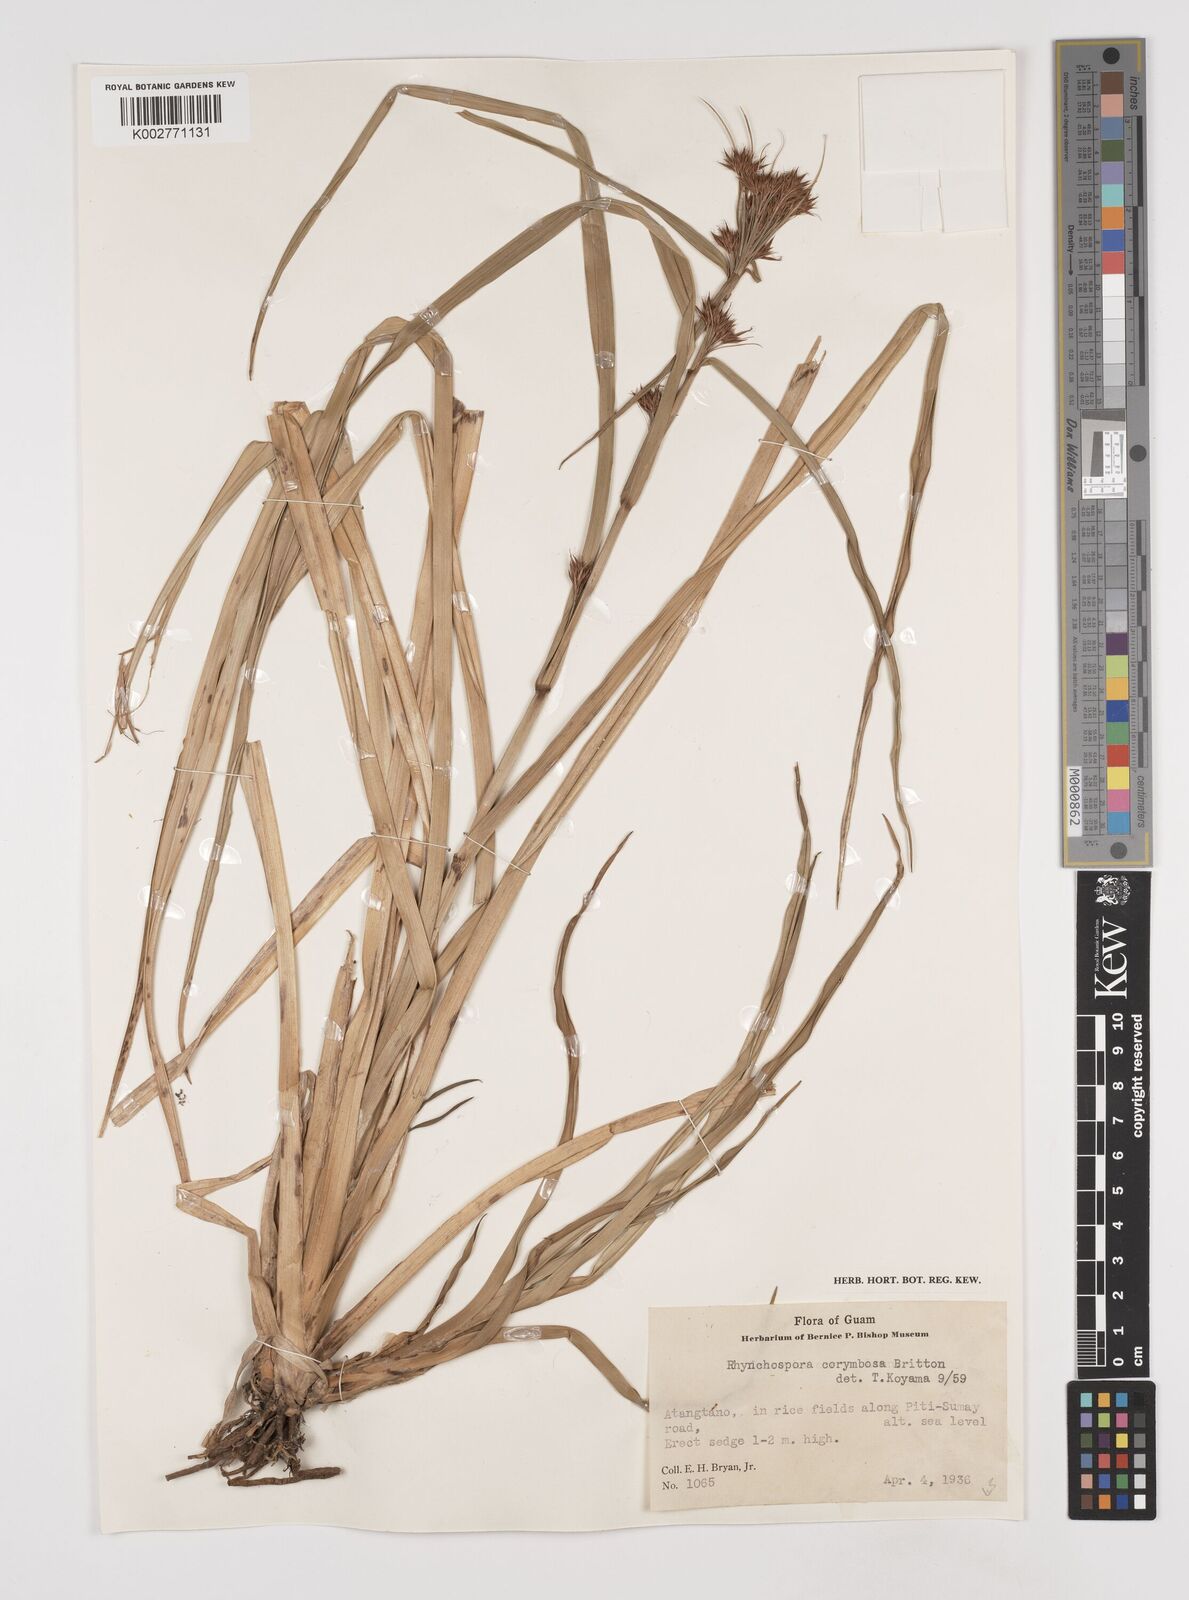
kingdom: Plantae
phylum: Tracheophyta
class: Liliopsida
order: Poales
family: Cyperaceae
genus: Rhynchospora
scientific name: Rhynchospora corymbosa
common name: Golden beak sedge
